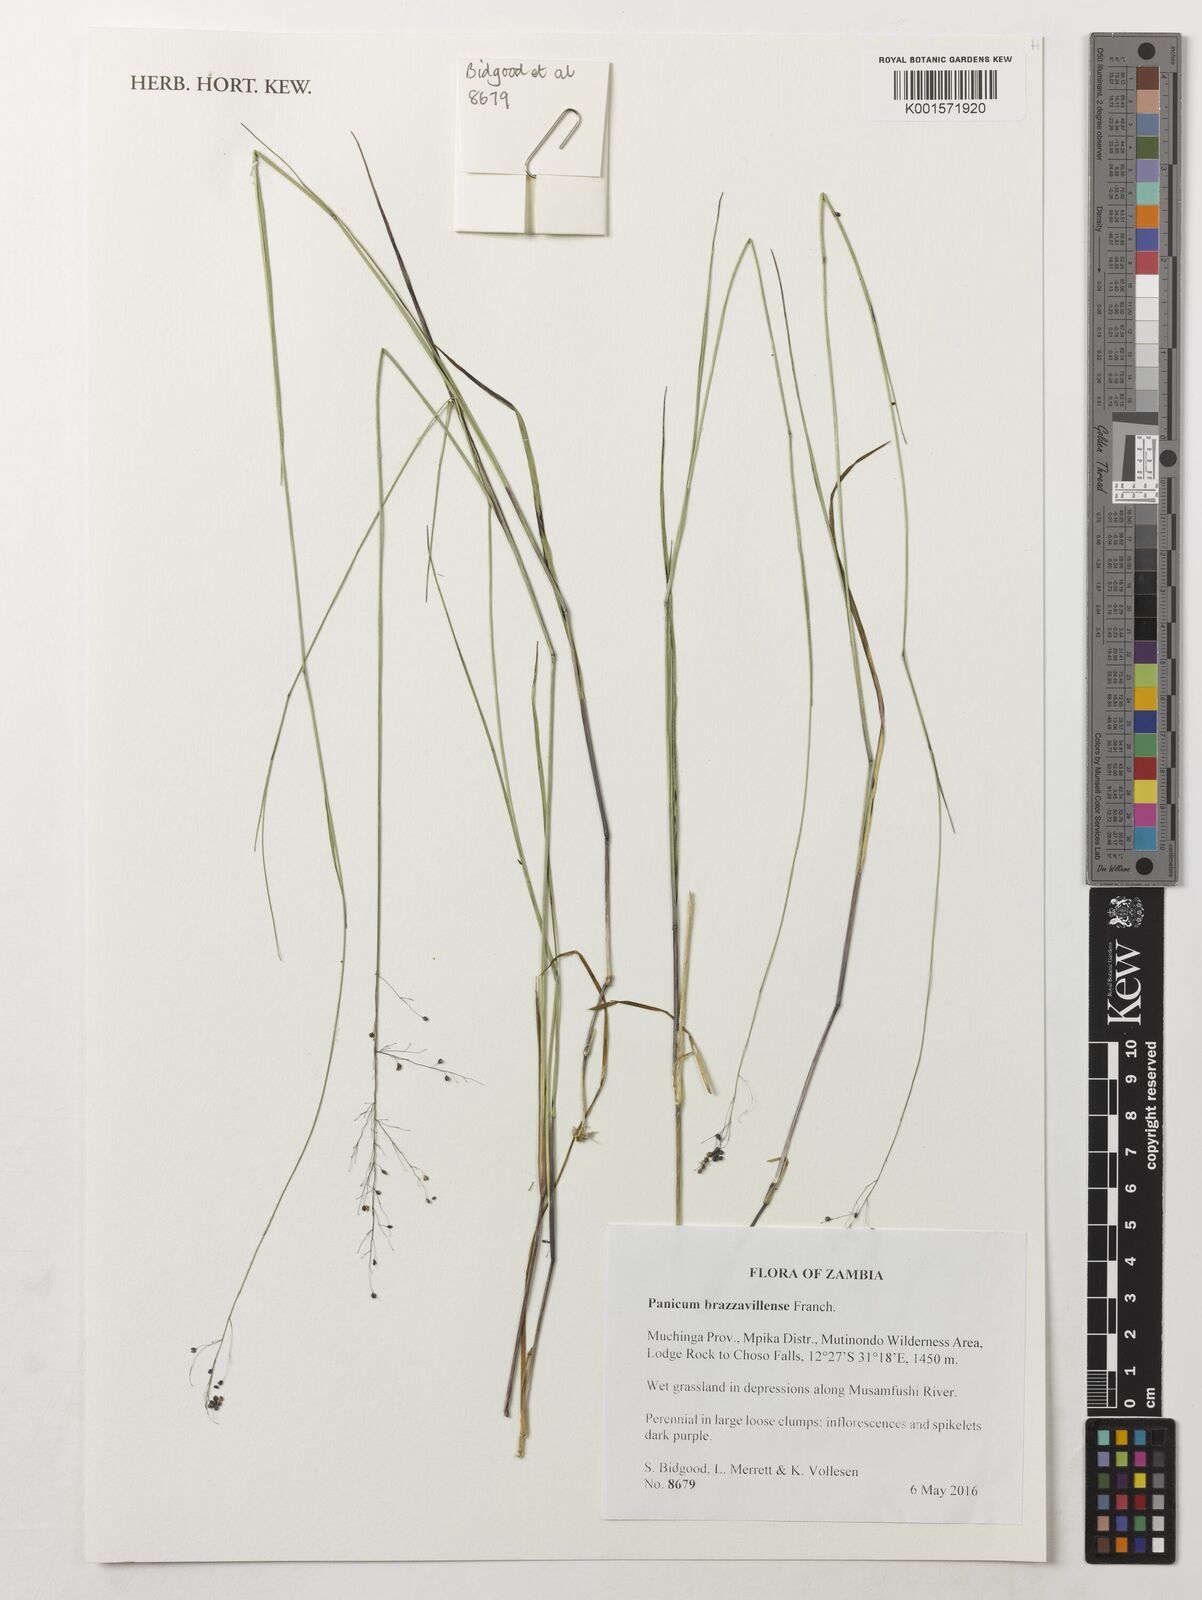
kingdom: Plantae
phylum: Tracheophyta
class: Liliopsida
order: Poales
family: Poaceae
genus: Trichanthecium
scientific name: Trichanthecium brazzavillense
